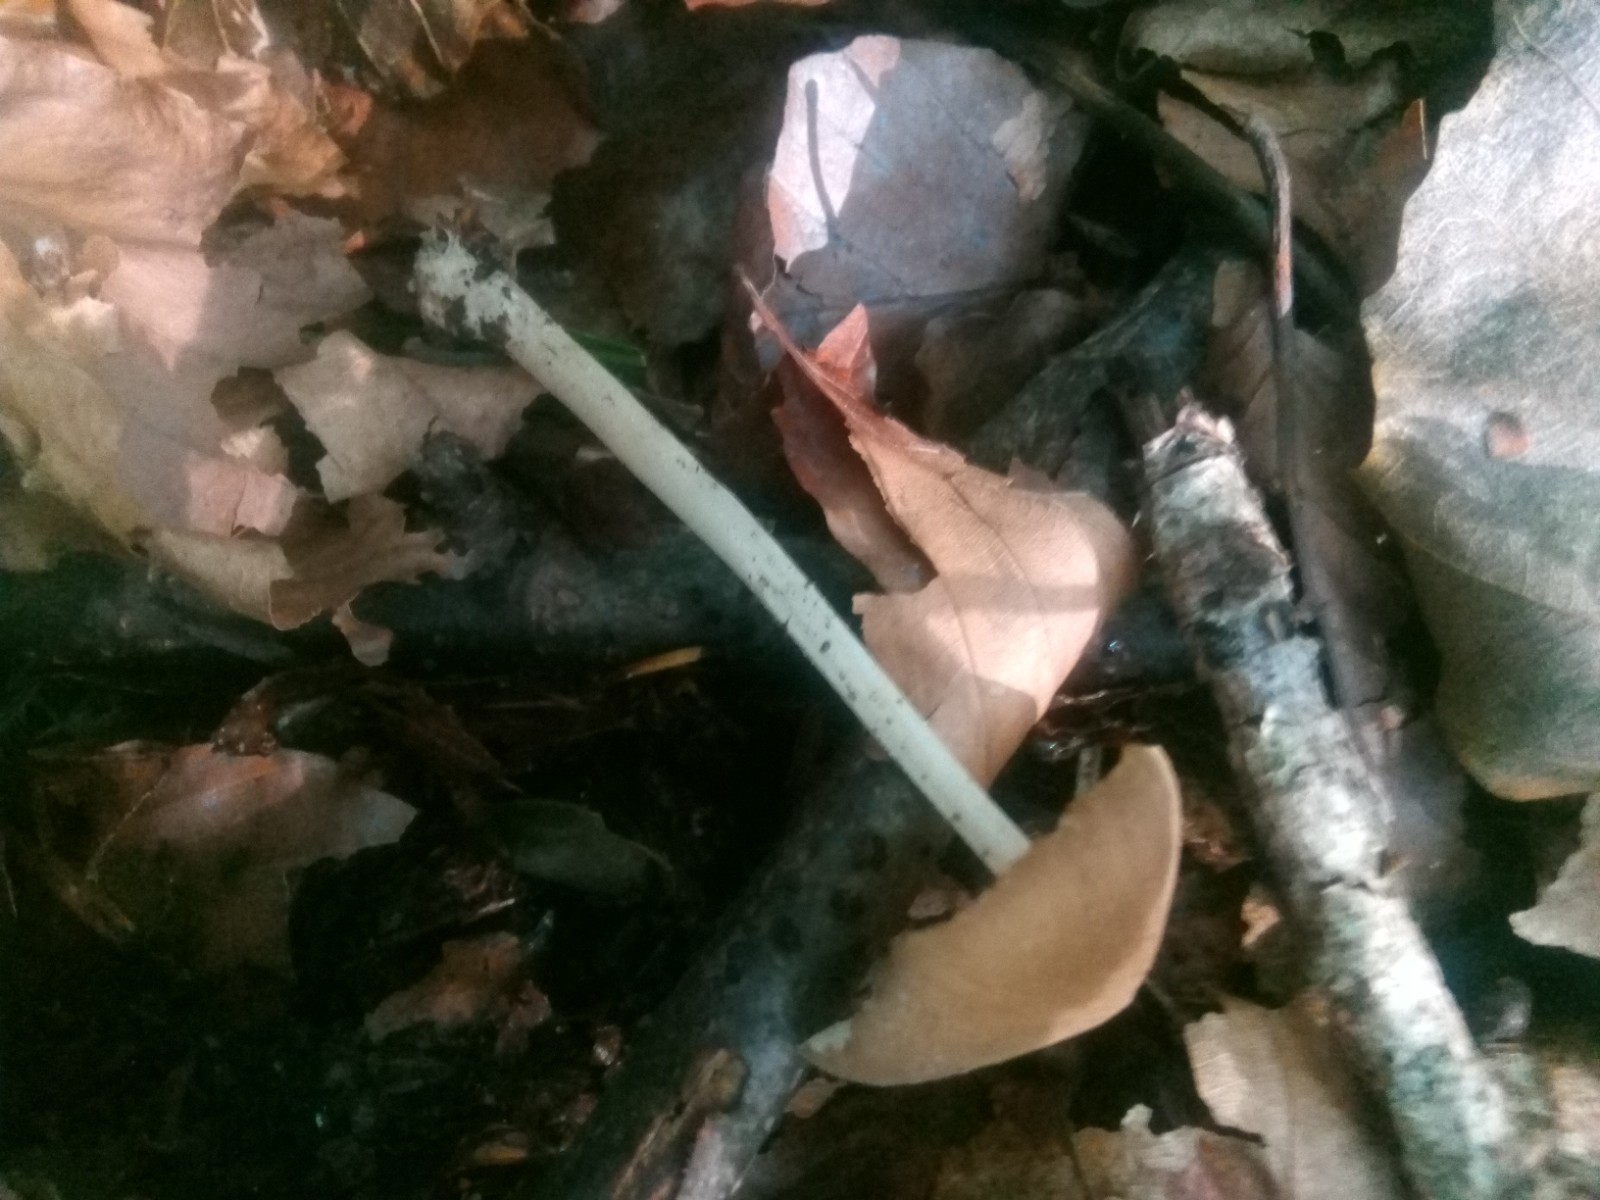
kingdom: Fungi
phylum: Basidiomycota
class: Agaricomycetes
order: Agaricales
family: Porotheleaceae
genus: Hydropodia
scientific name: Hydropodia subalpina
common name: vår-fnugfod
